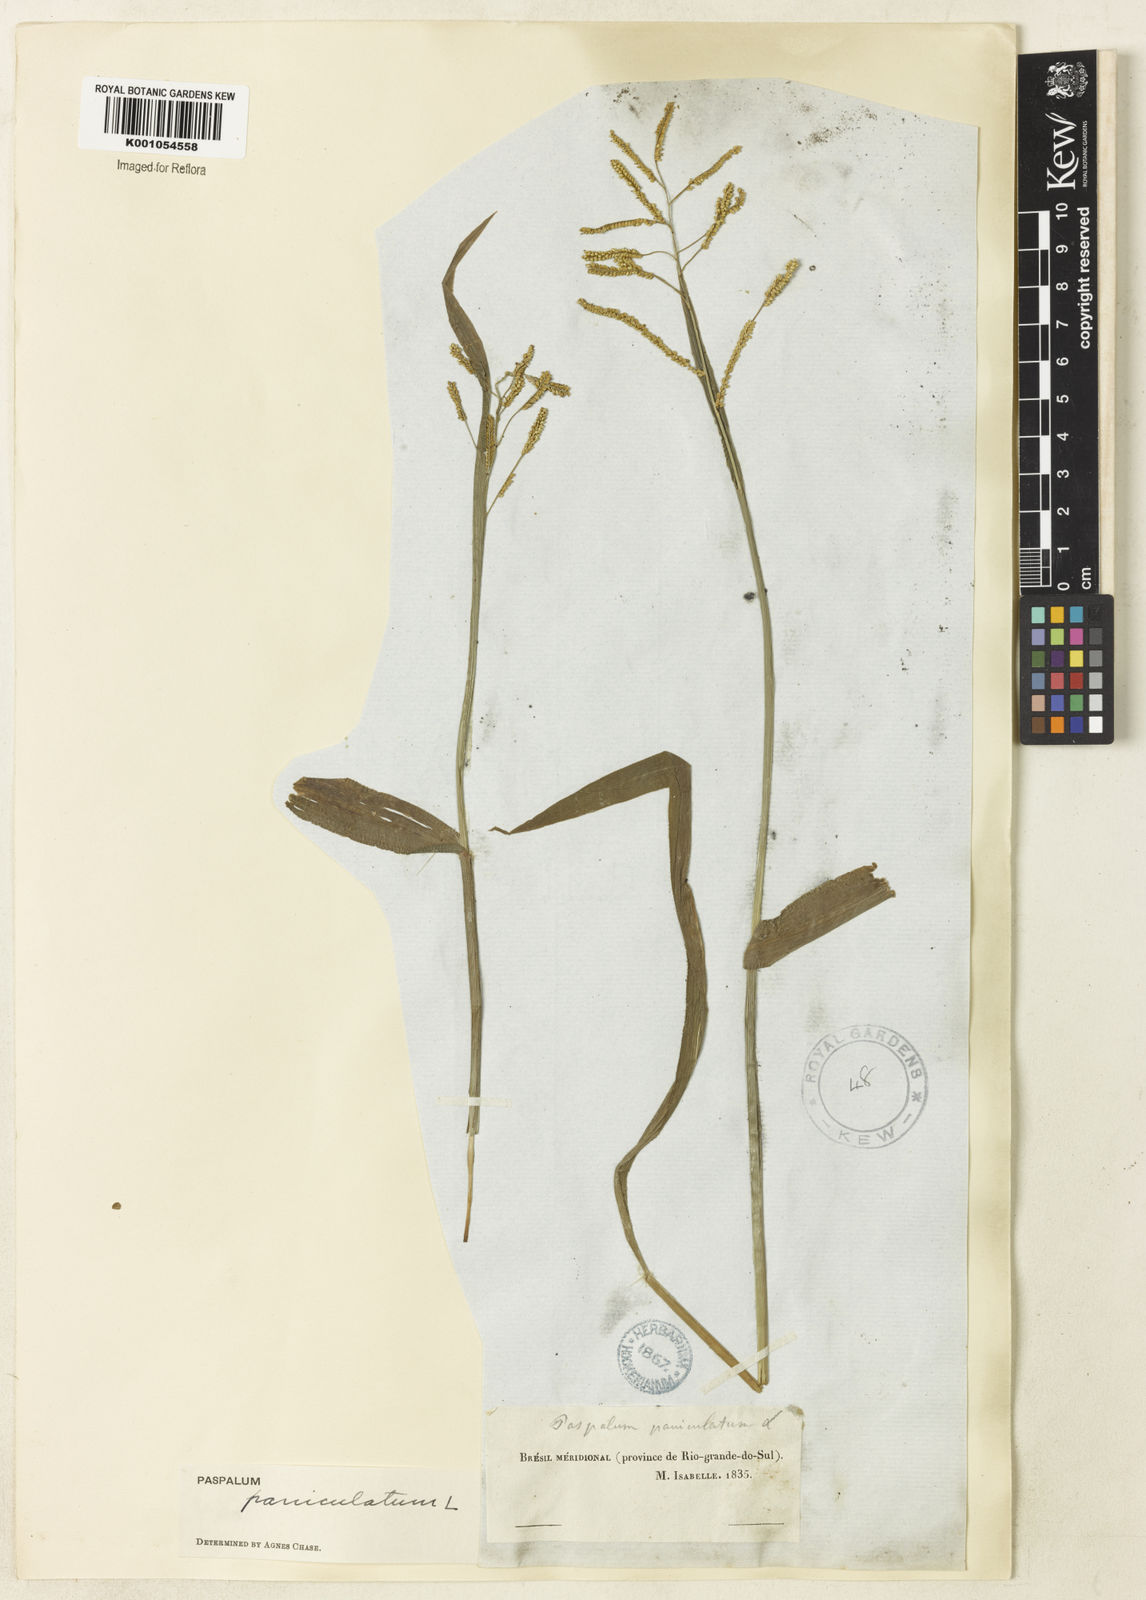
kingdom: Plantae
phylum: Tracheophyta
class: Liliopsida
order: Poales
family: Poaceae
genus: Paspalum
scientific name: Paspalum paniculatum
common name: Arrocillo
